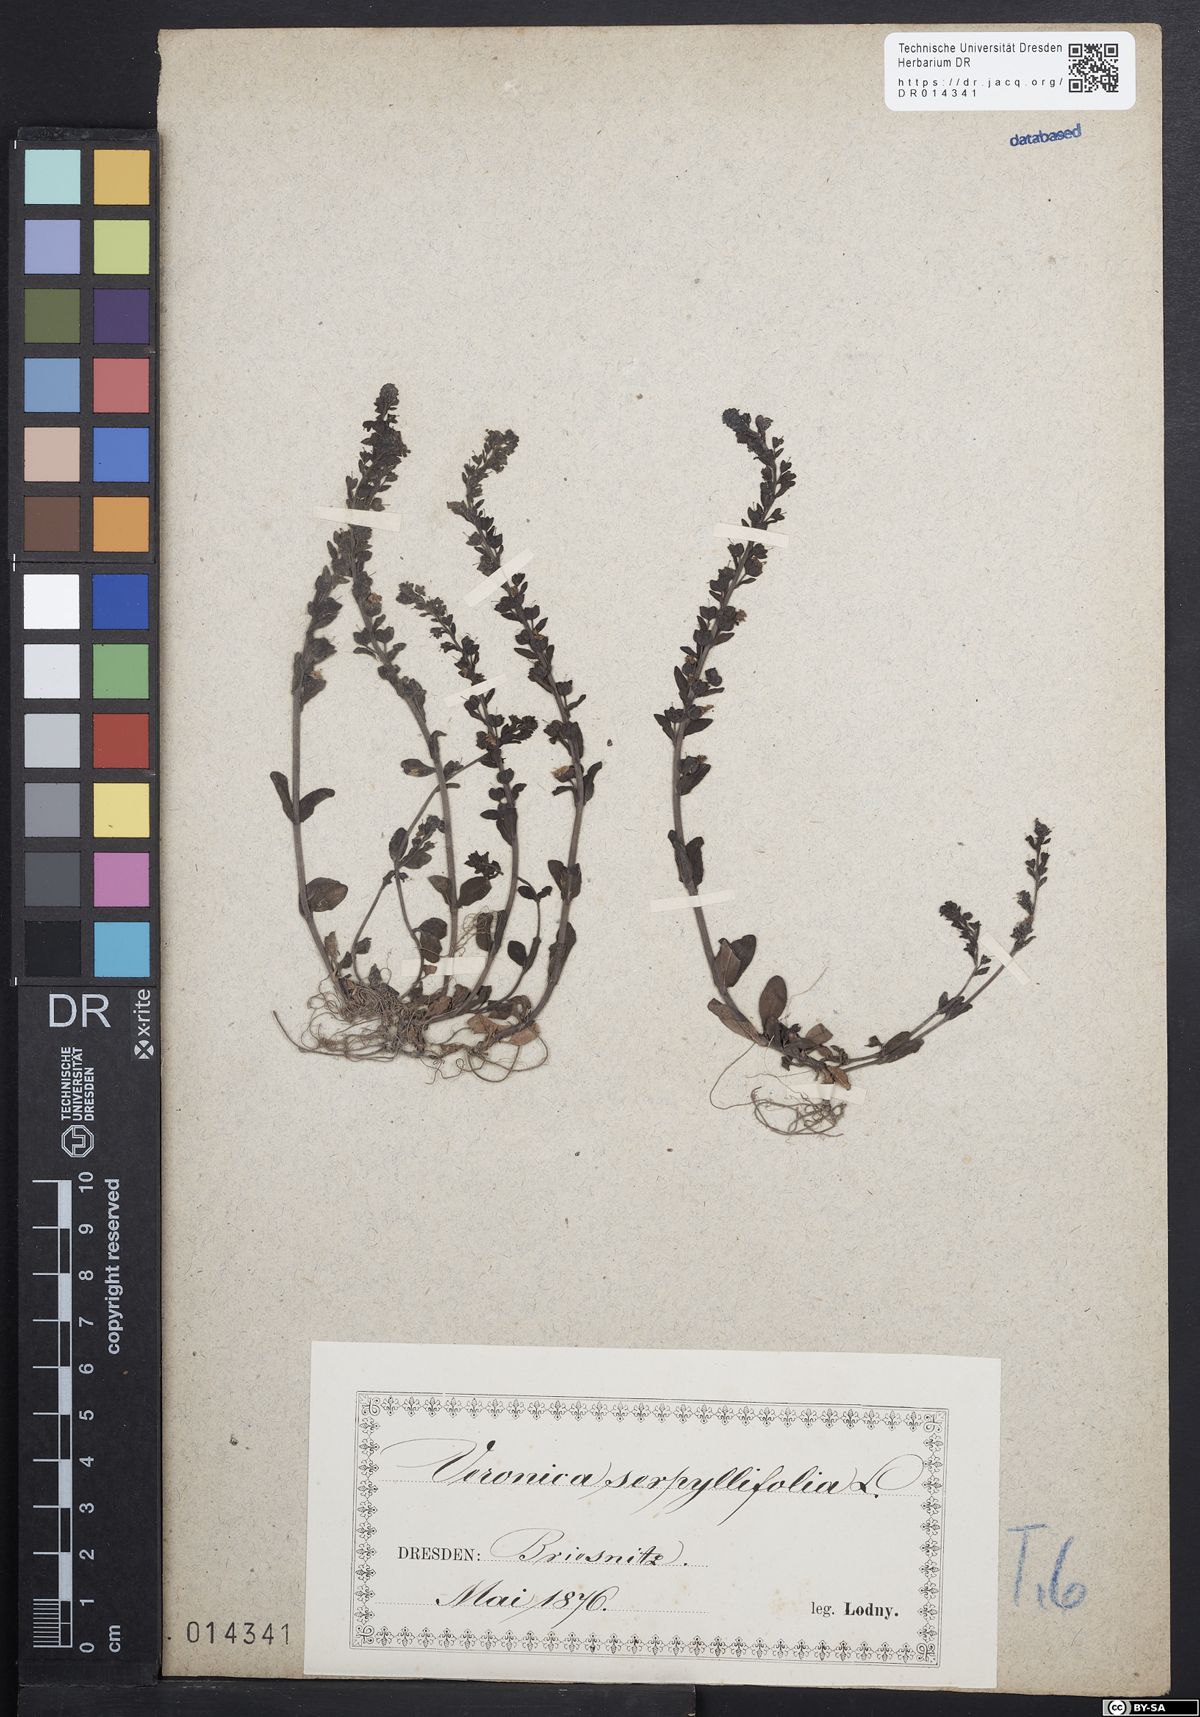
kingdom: Plantae
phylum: Tracheophyta
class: Magnoliopsida
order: Lamiales
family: Plantaginaceae
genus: Veronica
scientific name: Veronica serpyllifolia
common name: Thyme-leaved speedwell
